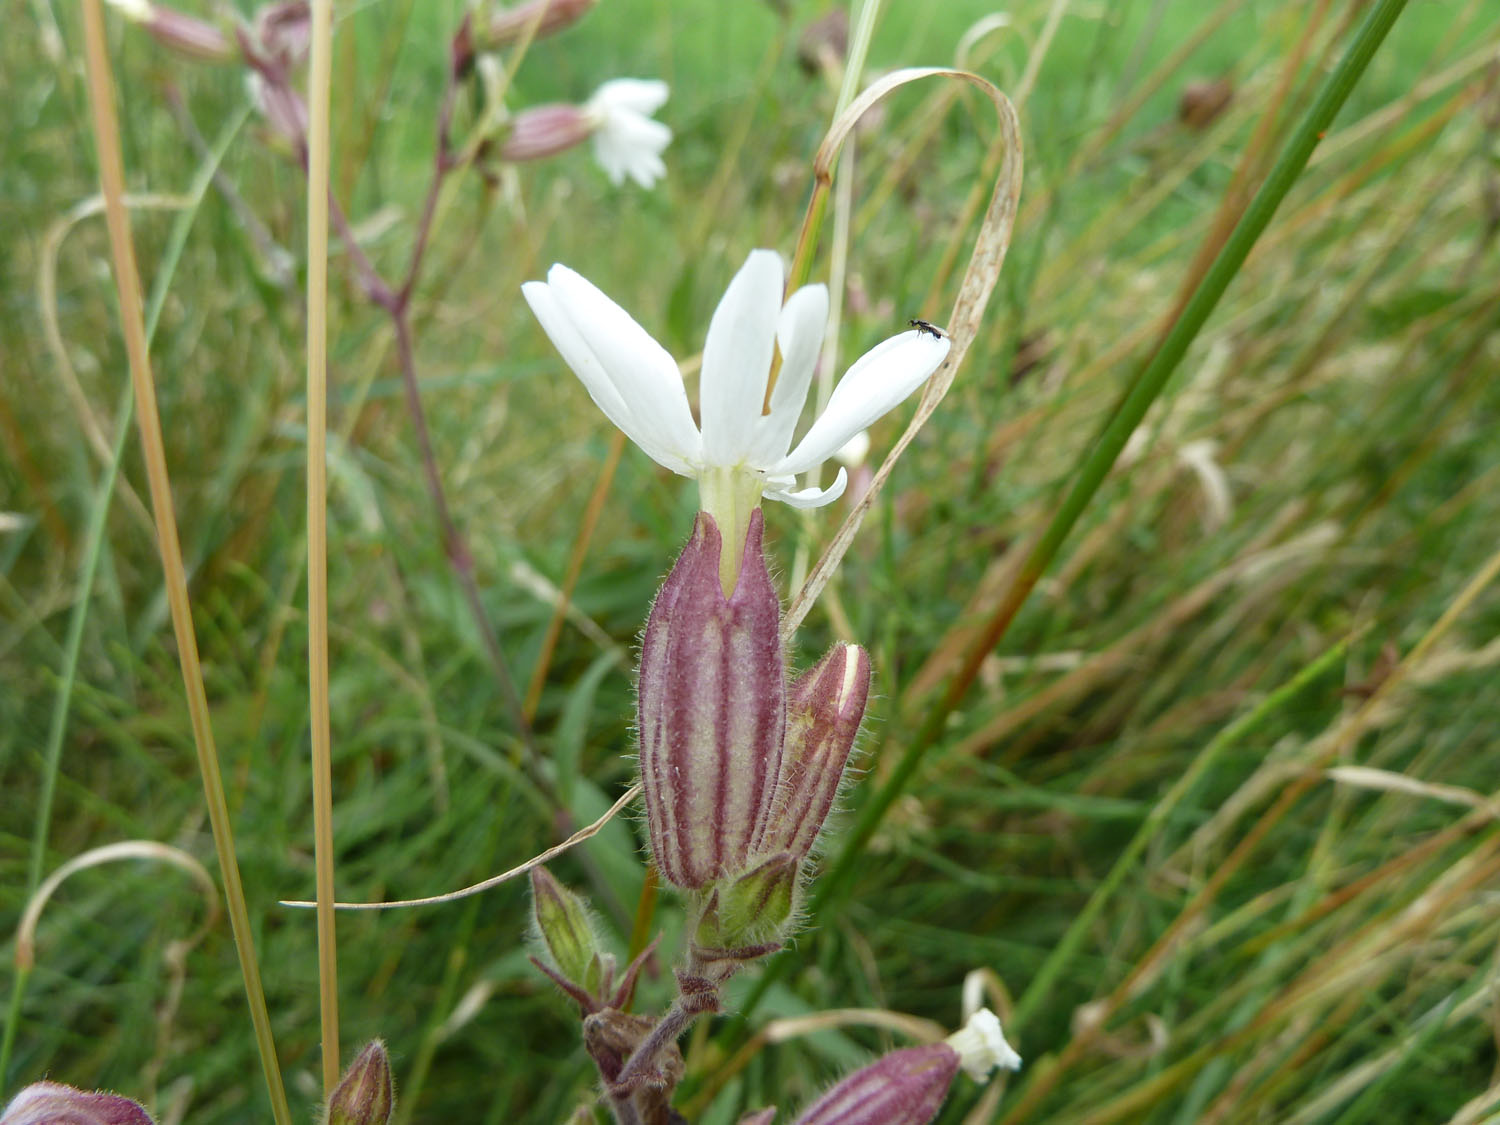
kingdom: Plantae
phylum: Tracheophyta
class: Magnoliopsida
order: Caryophyllales
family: Caryophyllaceae
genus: Silene
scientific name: Silene latifolia
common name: White campion
